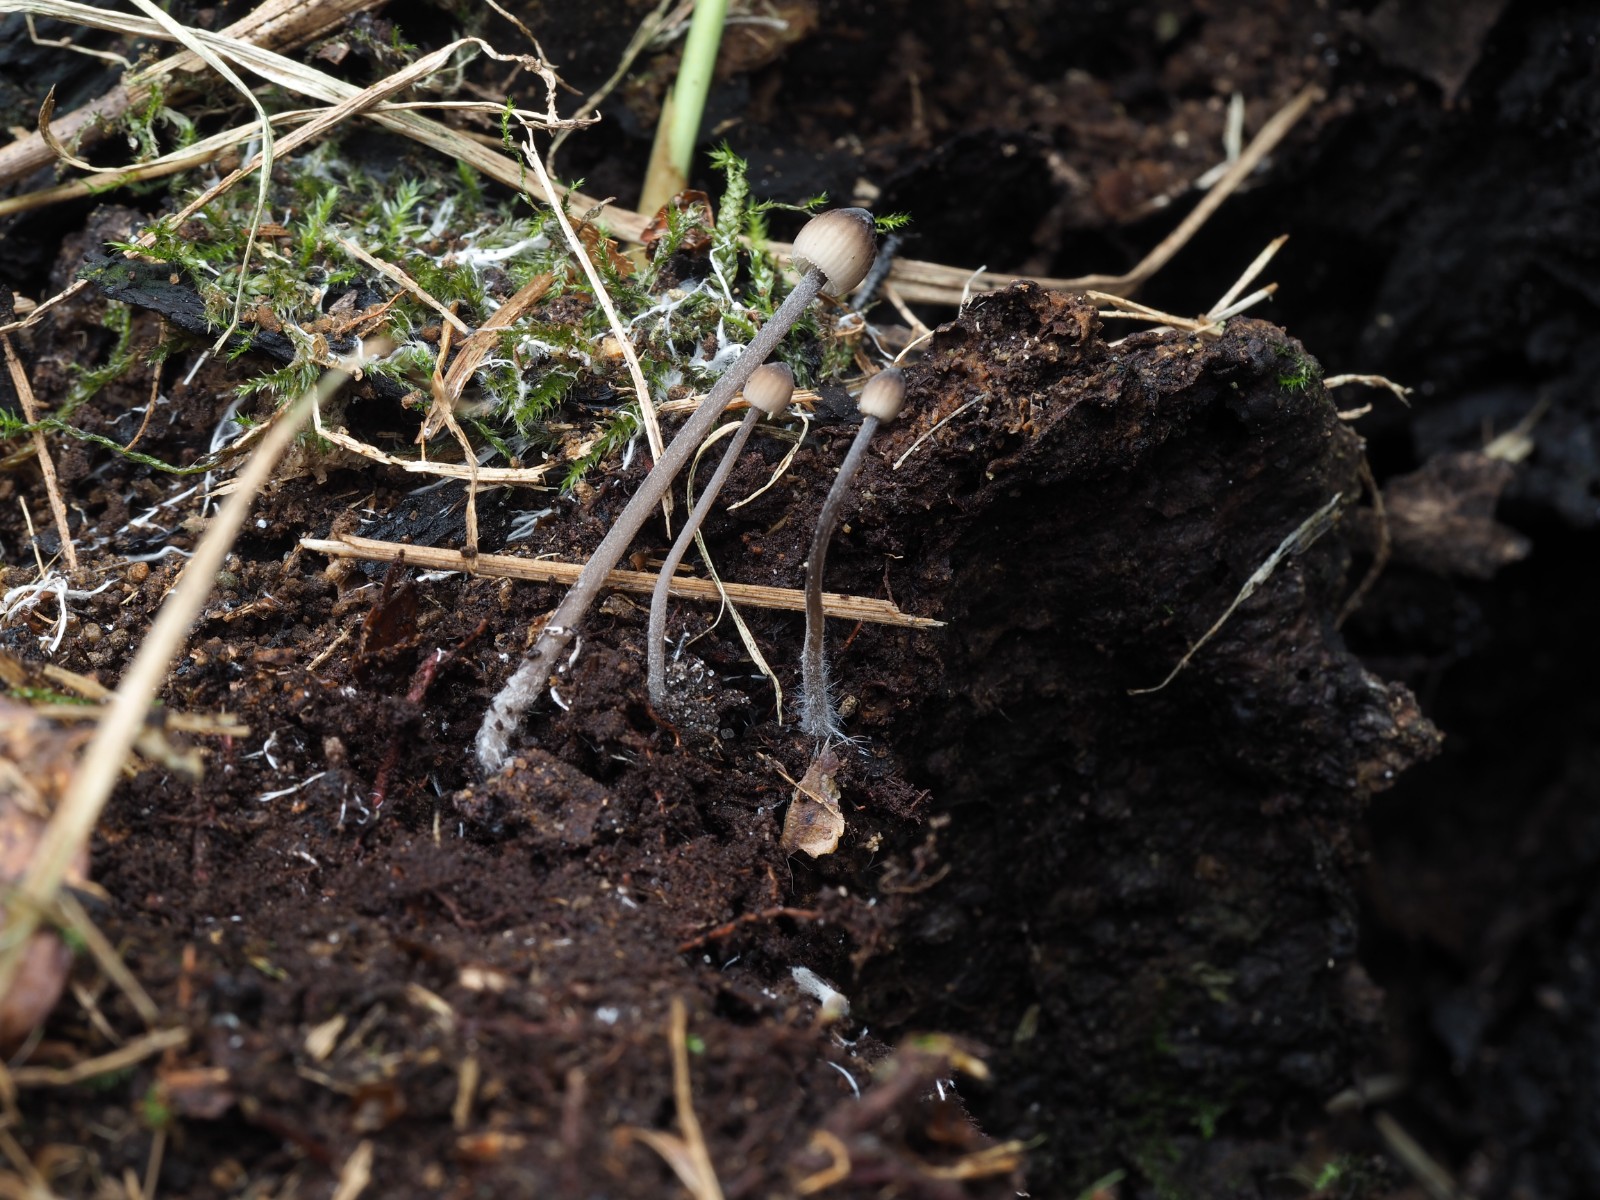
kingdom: Fungi
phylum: Basidiomycota
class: Agaricomycetes
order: Agaricales
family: Mycenaceae
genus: Mycena
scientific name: Mycena galopus
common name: hvidmælket huesvamp
